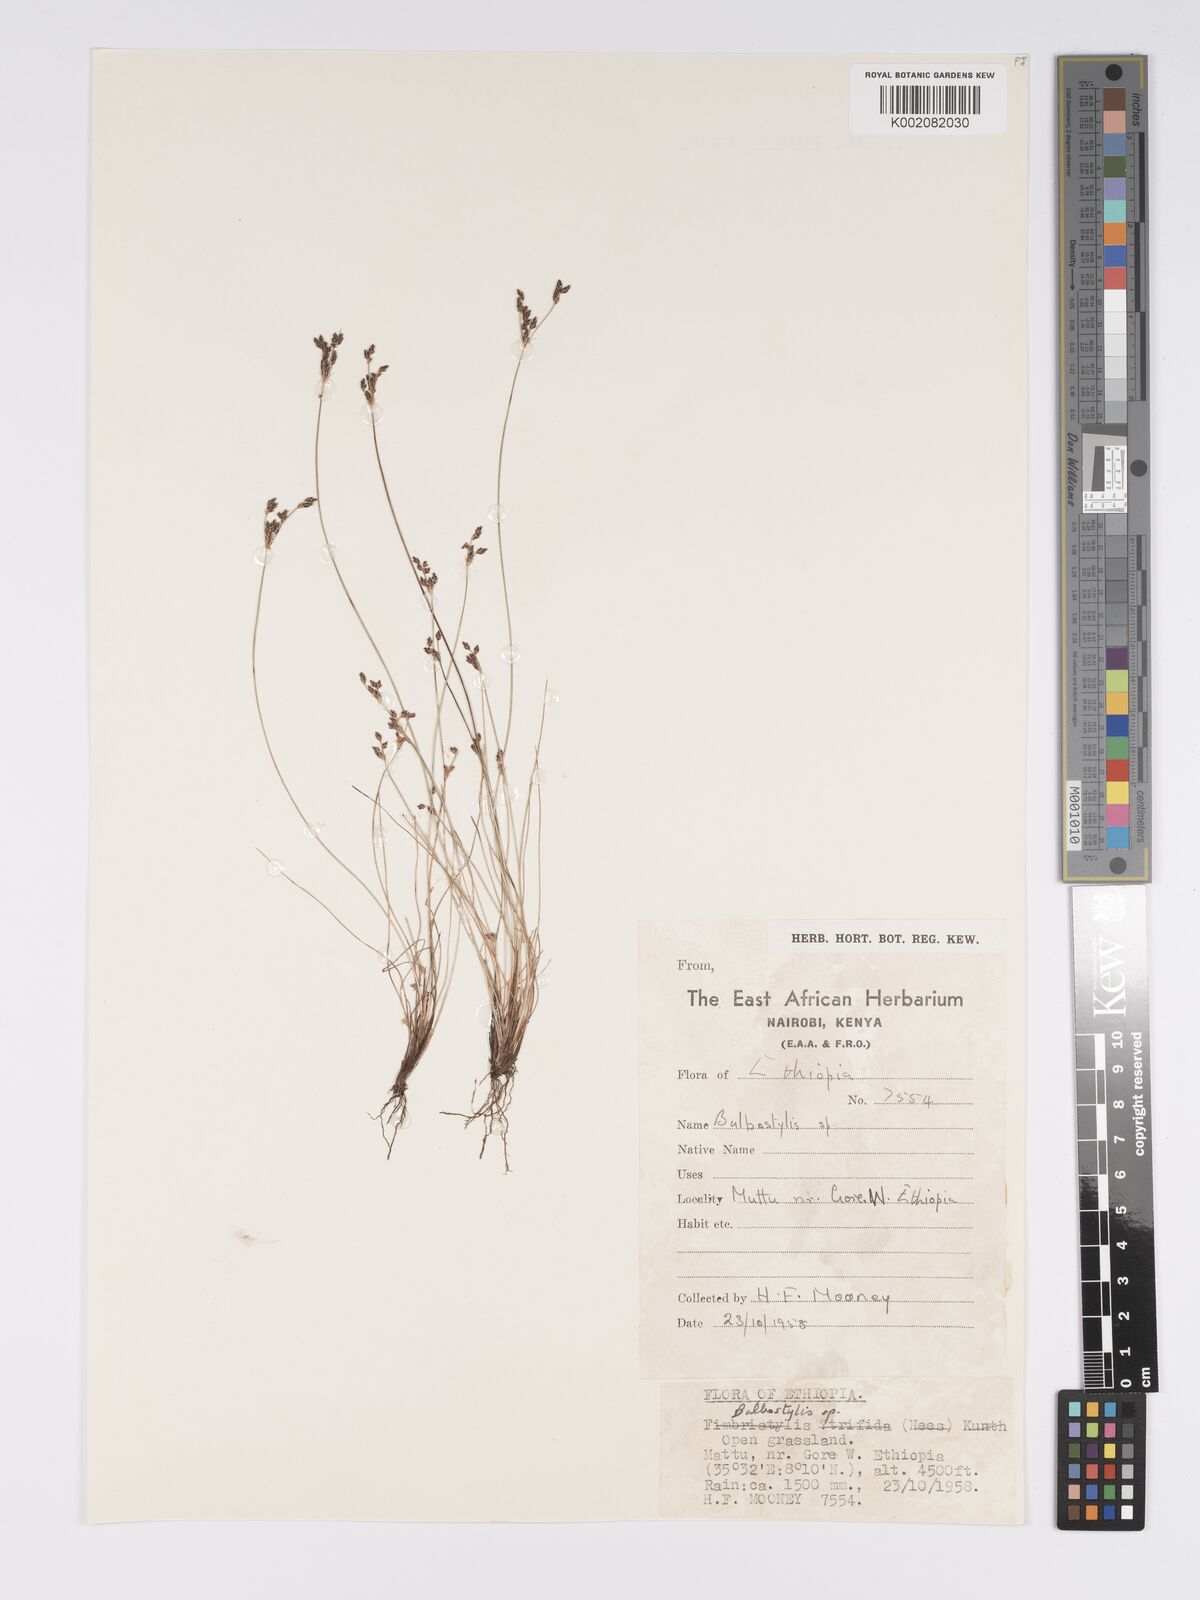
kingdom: Plantae
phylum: Tracheophyta
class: Liliopsida
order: Poales
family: Cyperaceae
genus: Bulbostylis
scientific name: Bulbostylis densa
